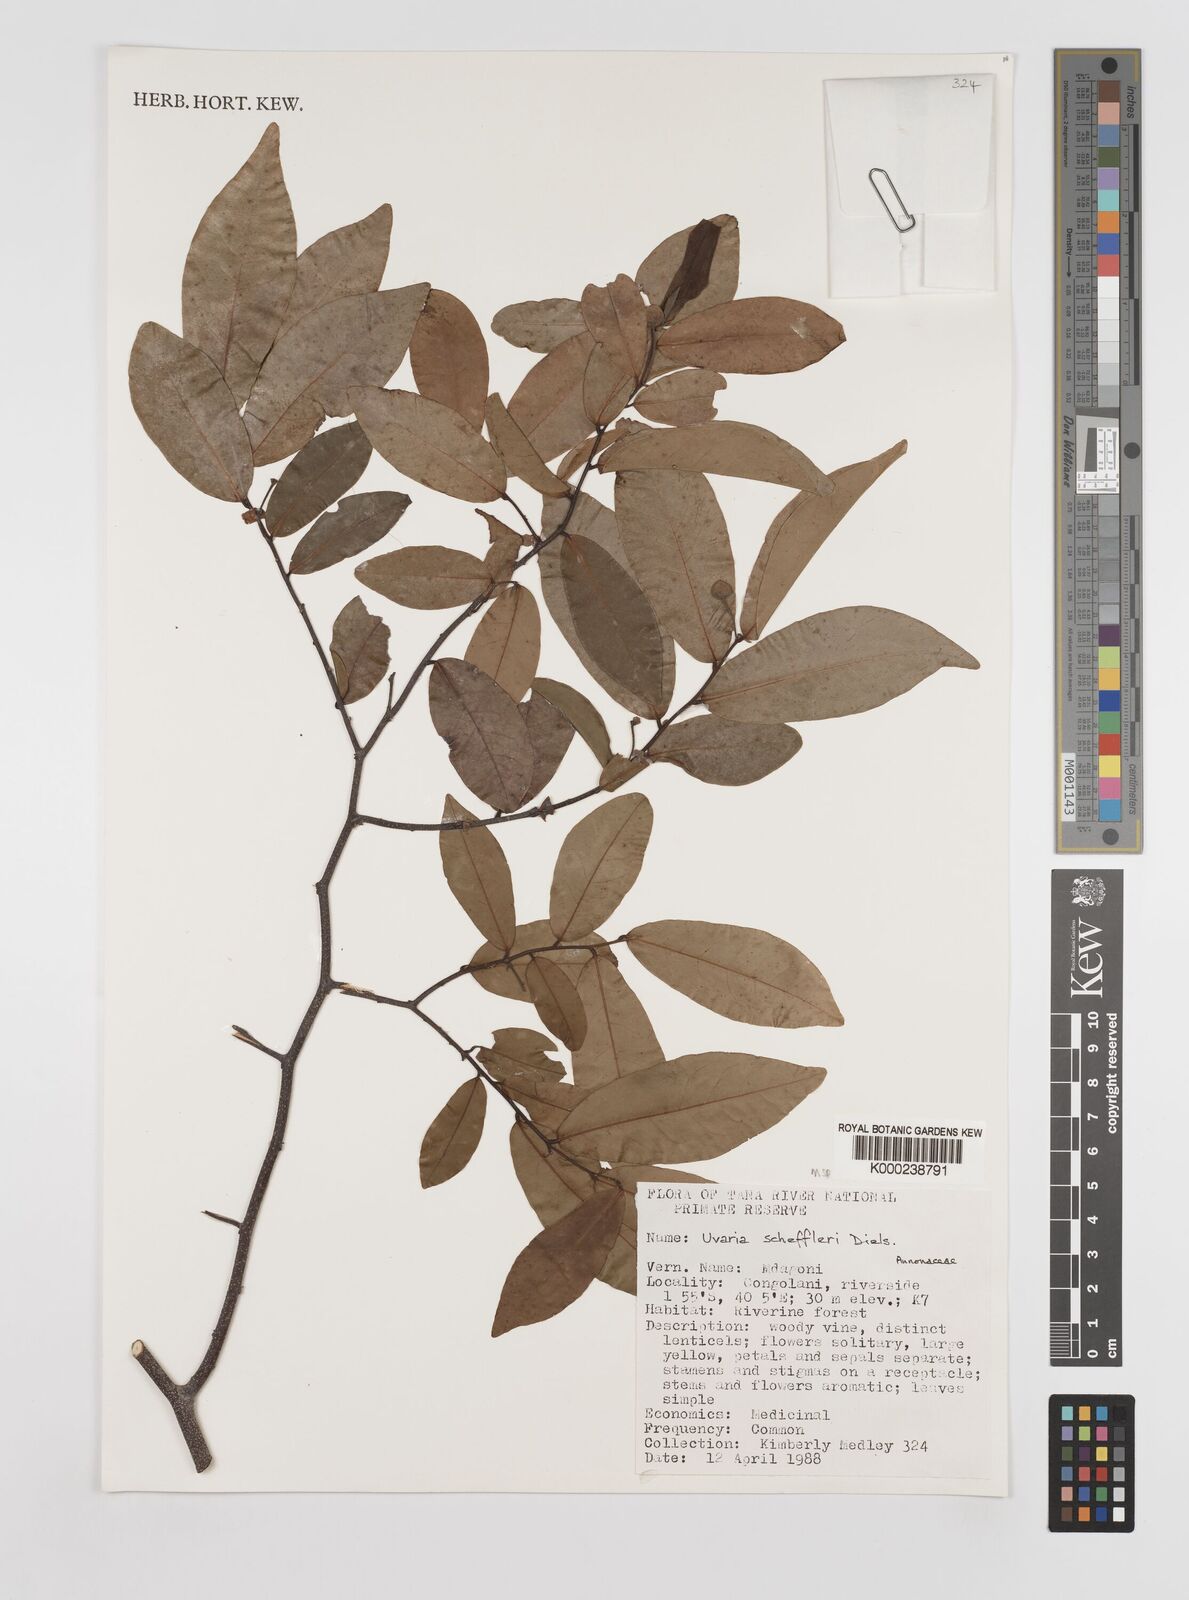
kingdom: Plantae
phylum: Tracheophyta
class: Magnoliopsida
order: Magnoliales
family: Annonaceae
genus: Uvaria
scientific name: Uvaria scheffleri
